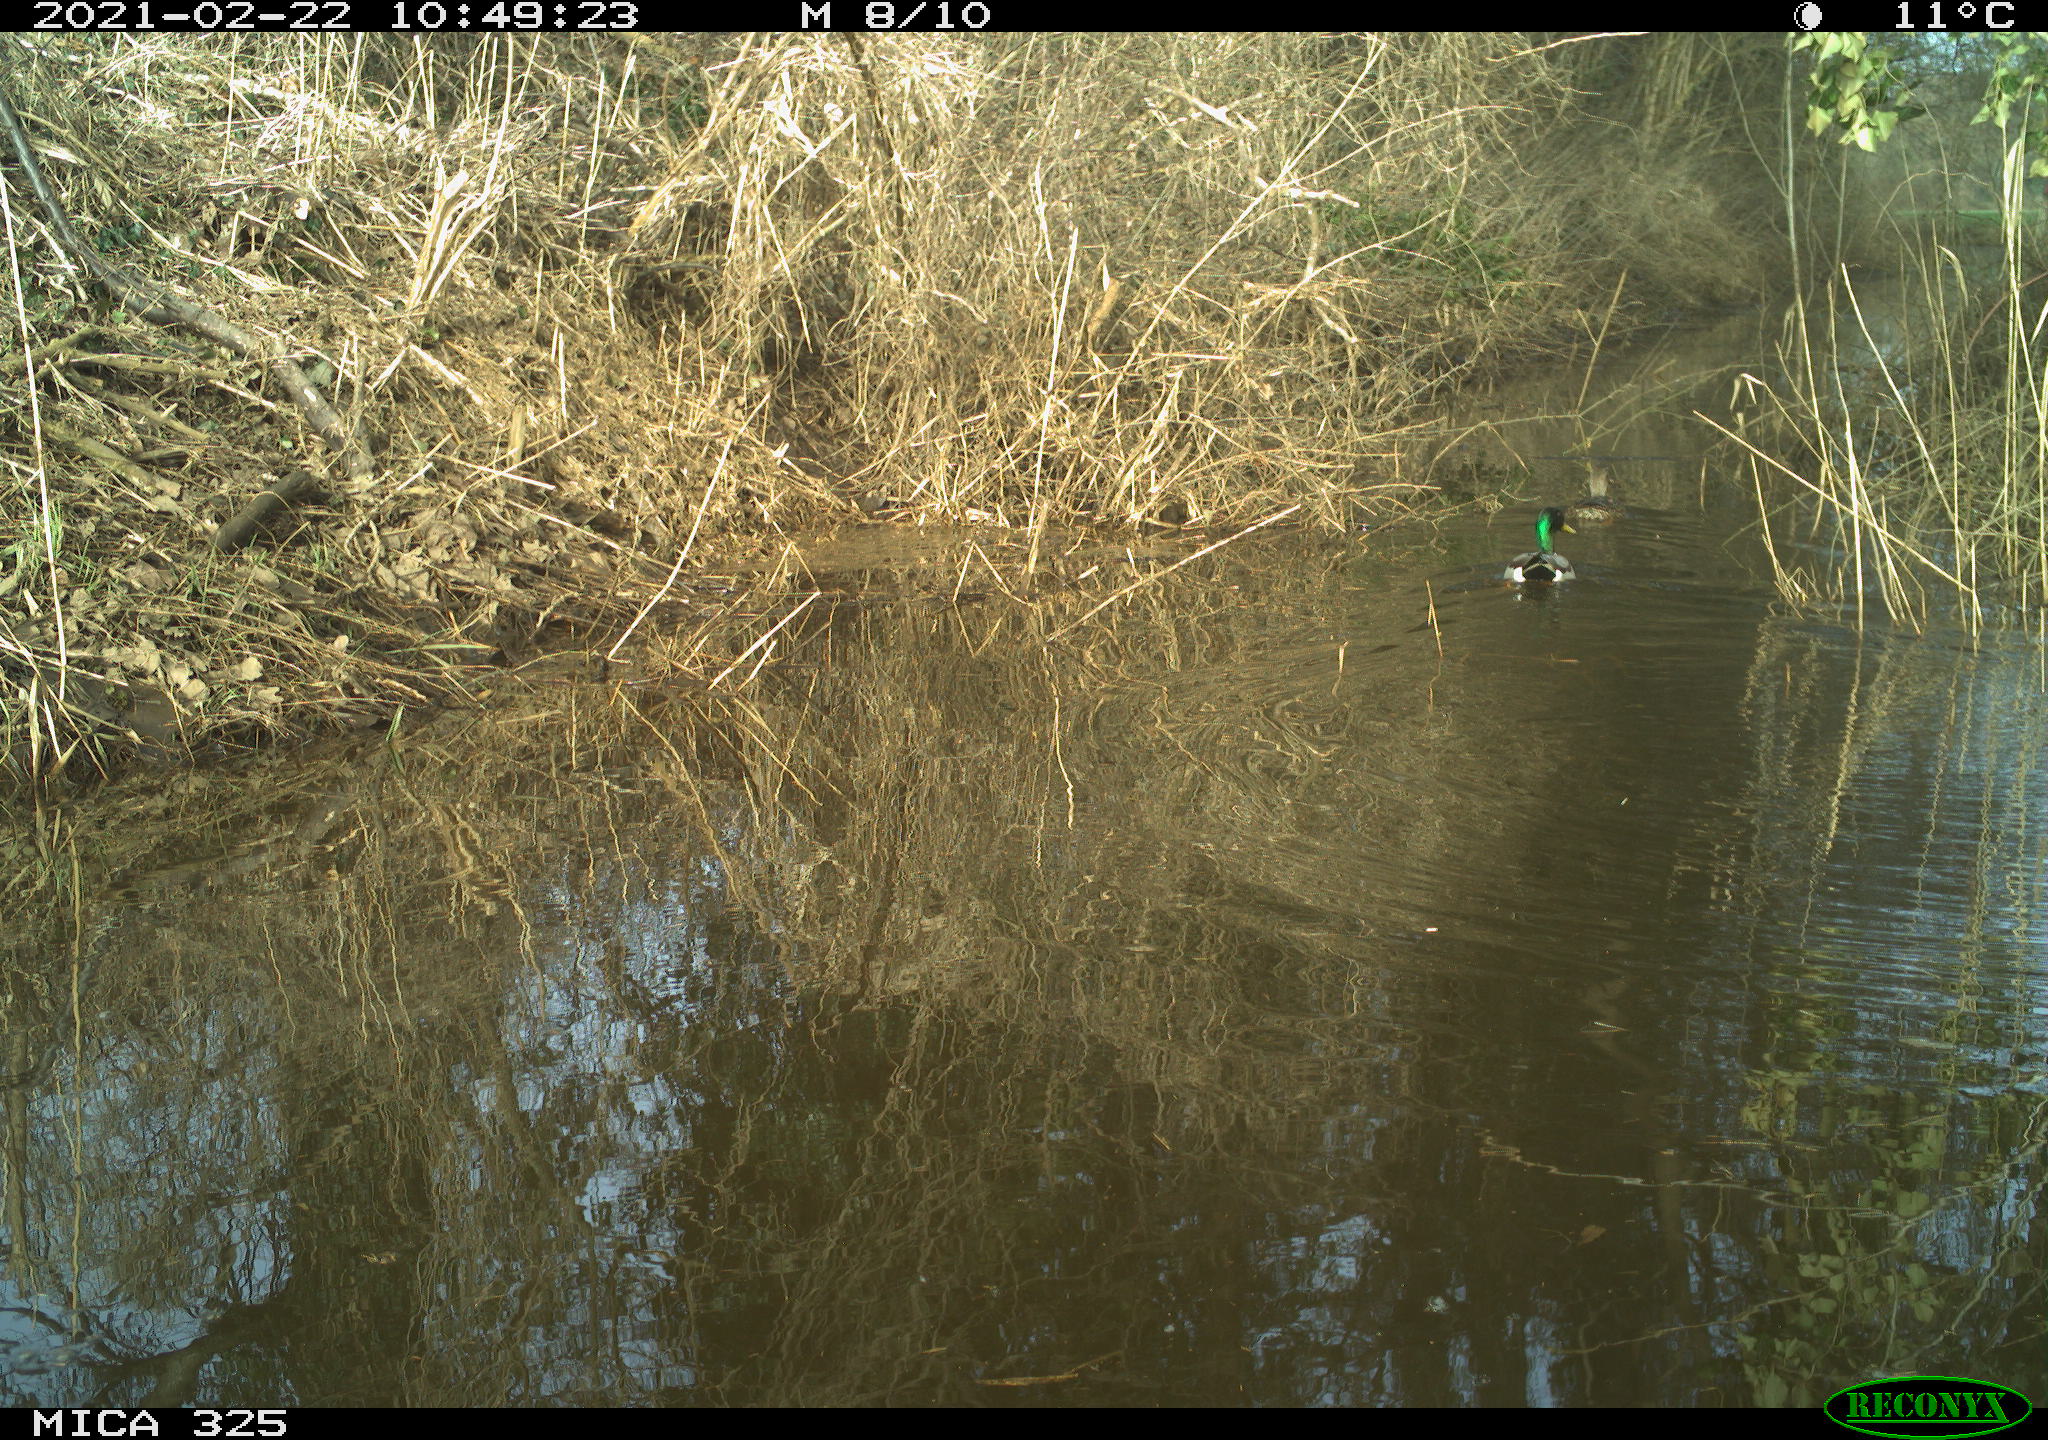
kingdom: Animalia
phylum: Chordata
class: Aves
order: Anseriformes
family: Anatidae
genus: Anas
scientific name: Anas platyrhynchos
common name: Mallard
